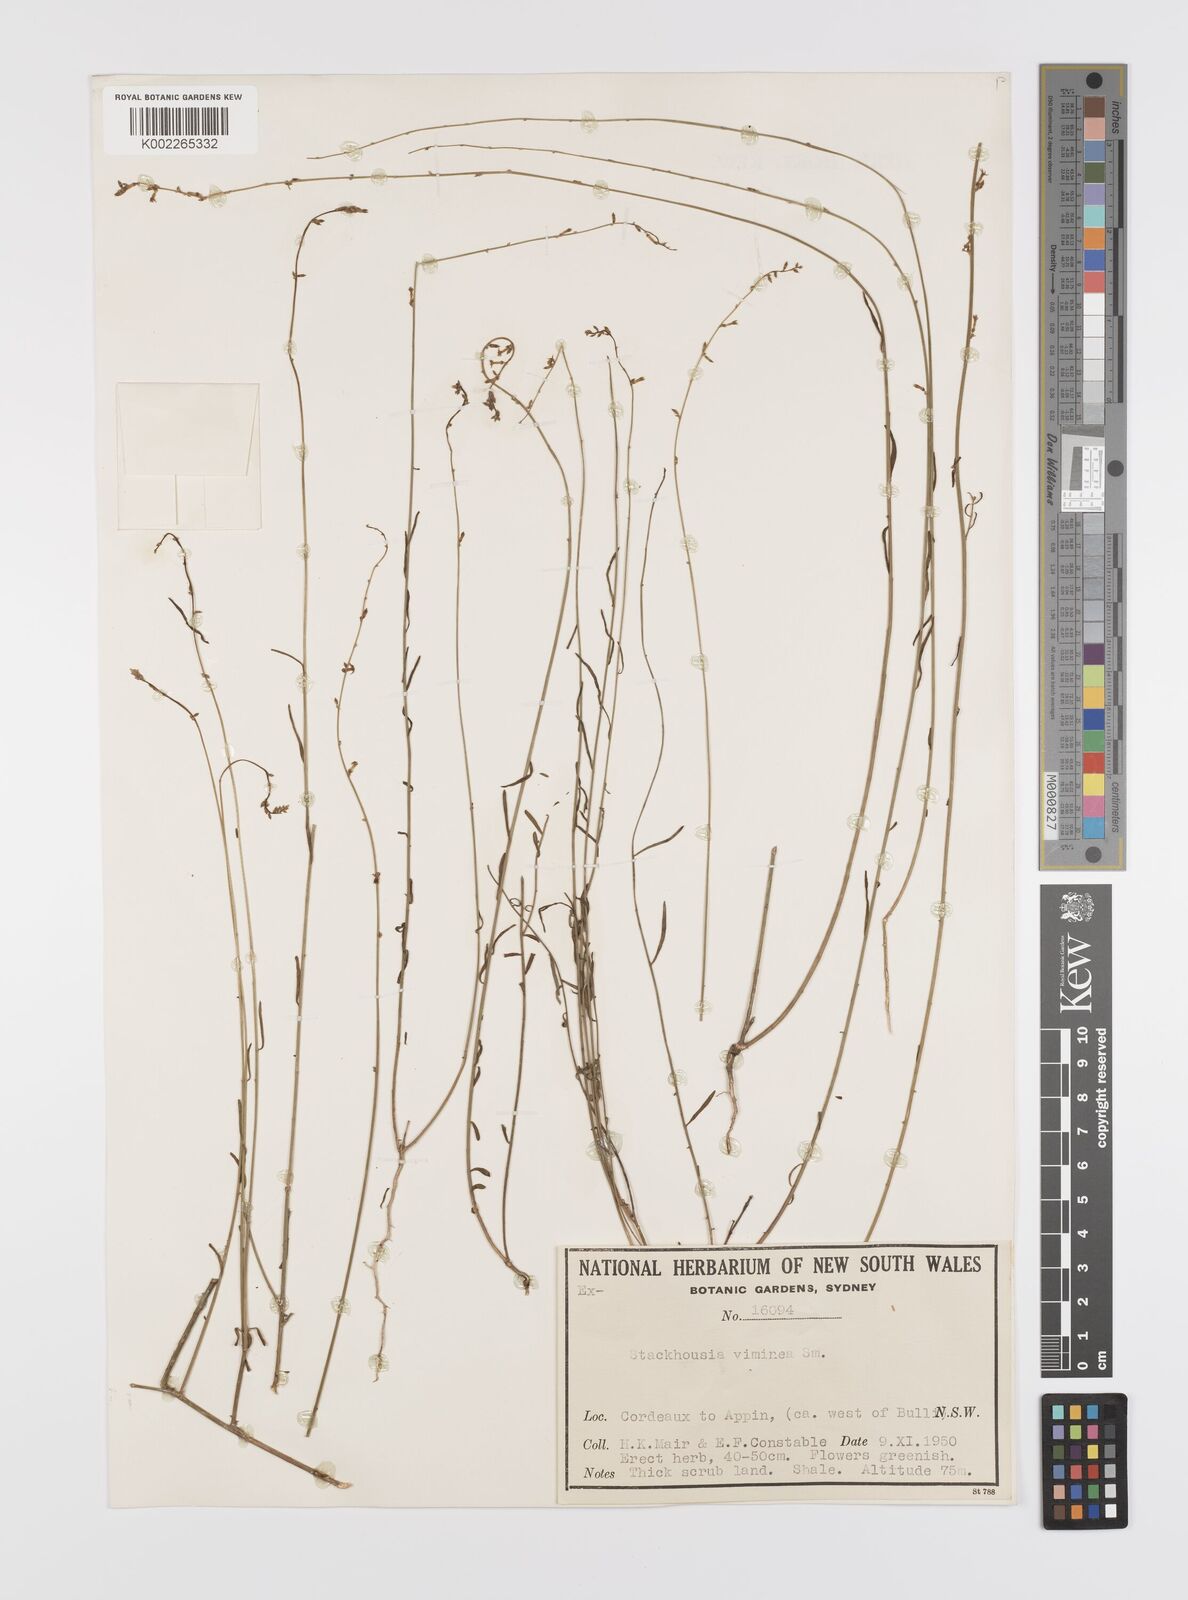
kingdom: Plantae
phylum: Tracheophyta
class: Magnoliopsida
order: Celastrales
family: Celastraceae
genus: Stackhousia
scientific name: Stackhousia viminea
